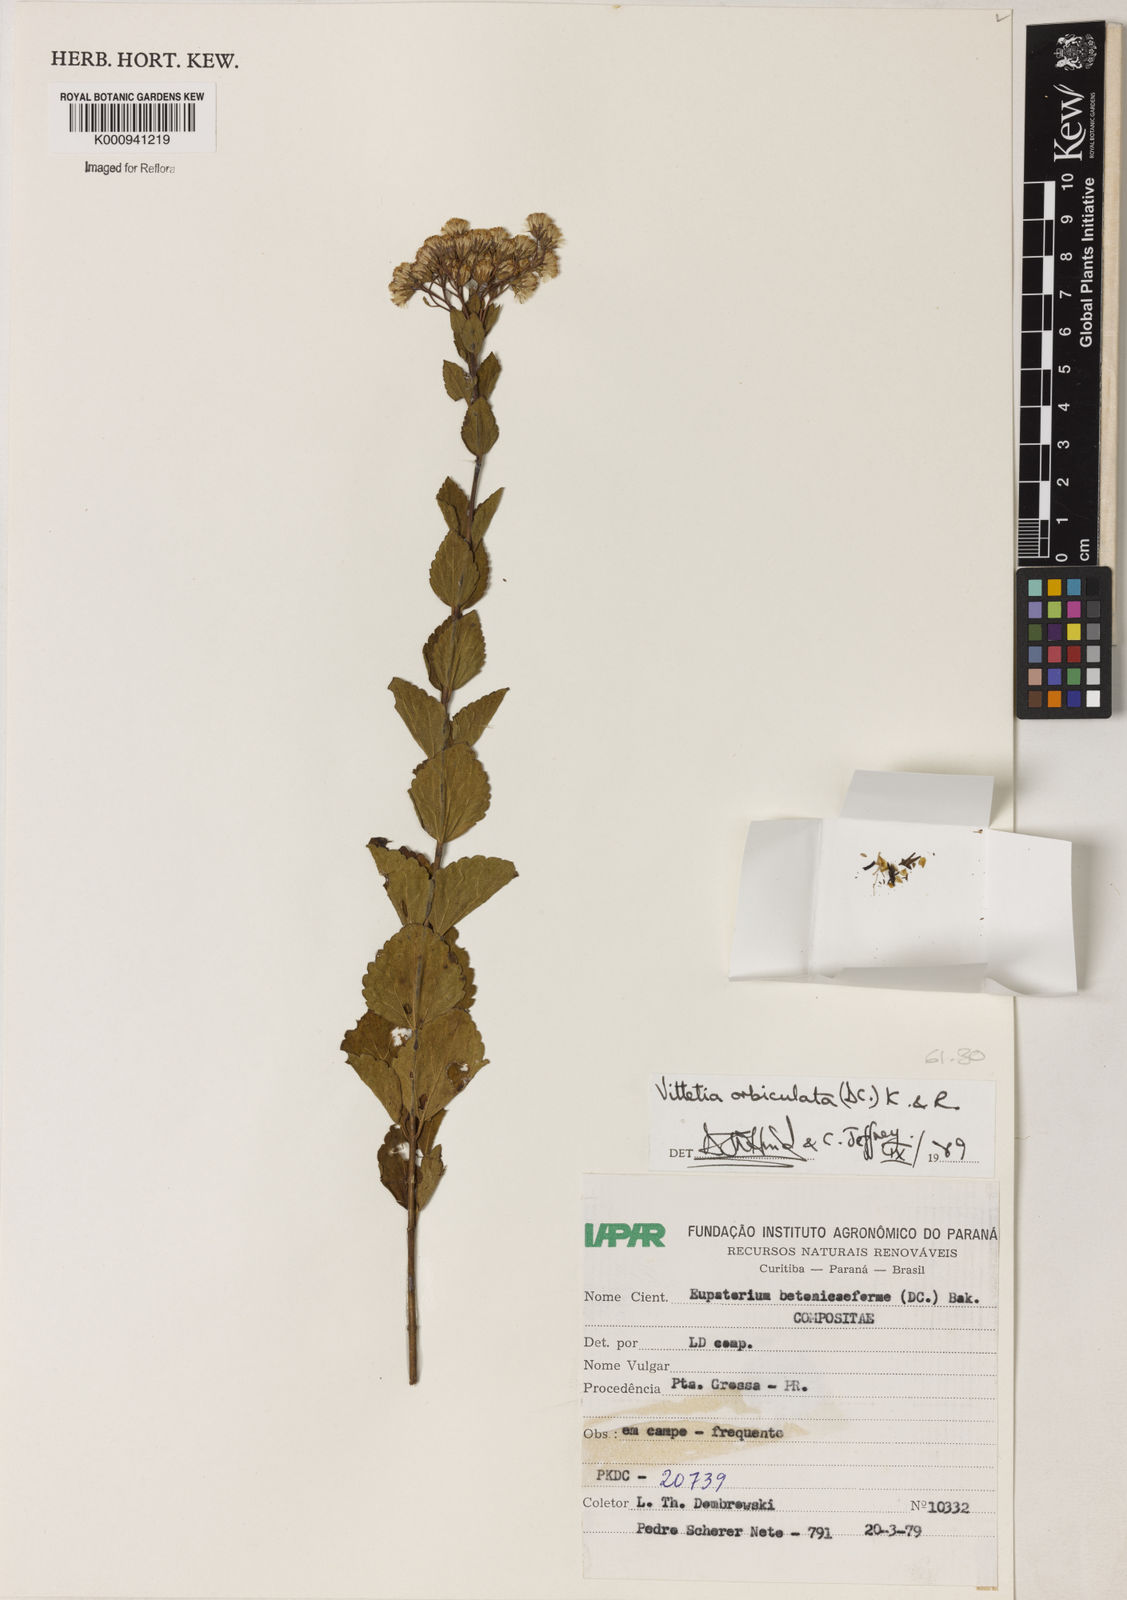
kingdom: Plantae
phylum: Tracheophyta
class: Magnoliopsida
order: Asterales
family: Asteraceae
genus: Vittetia
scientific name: Vittetia orbiculata
